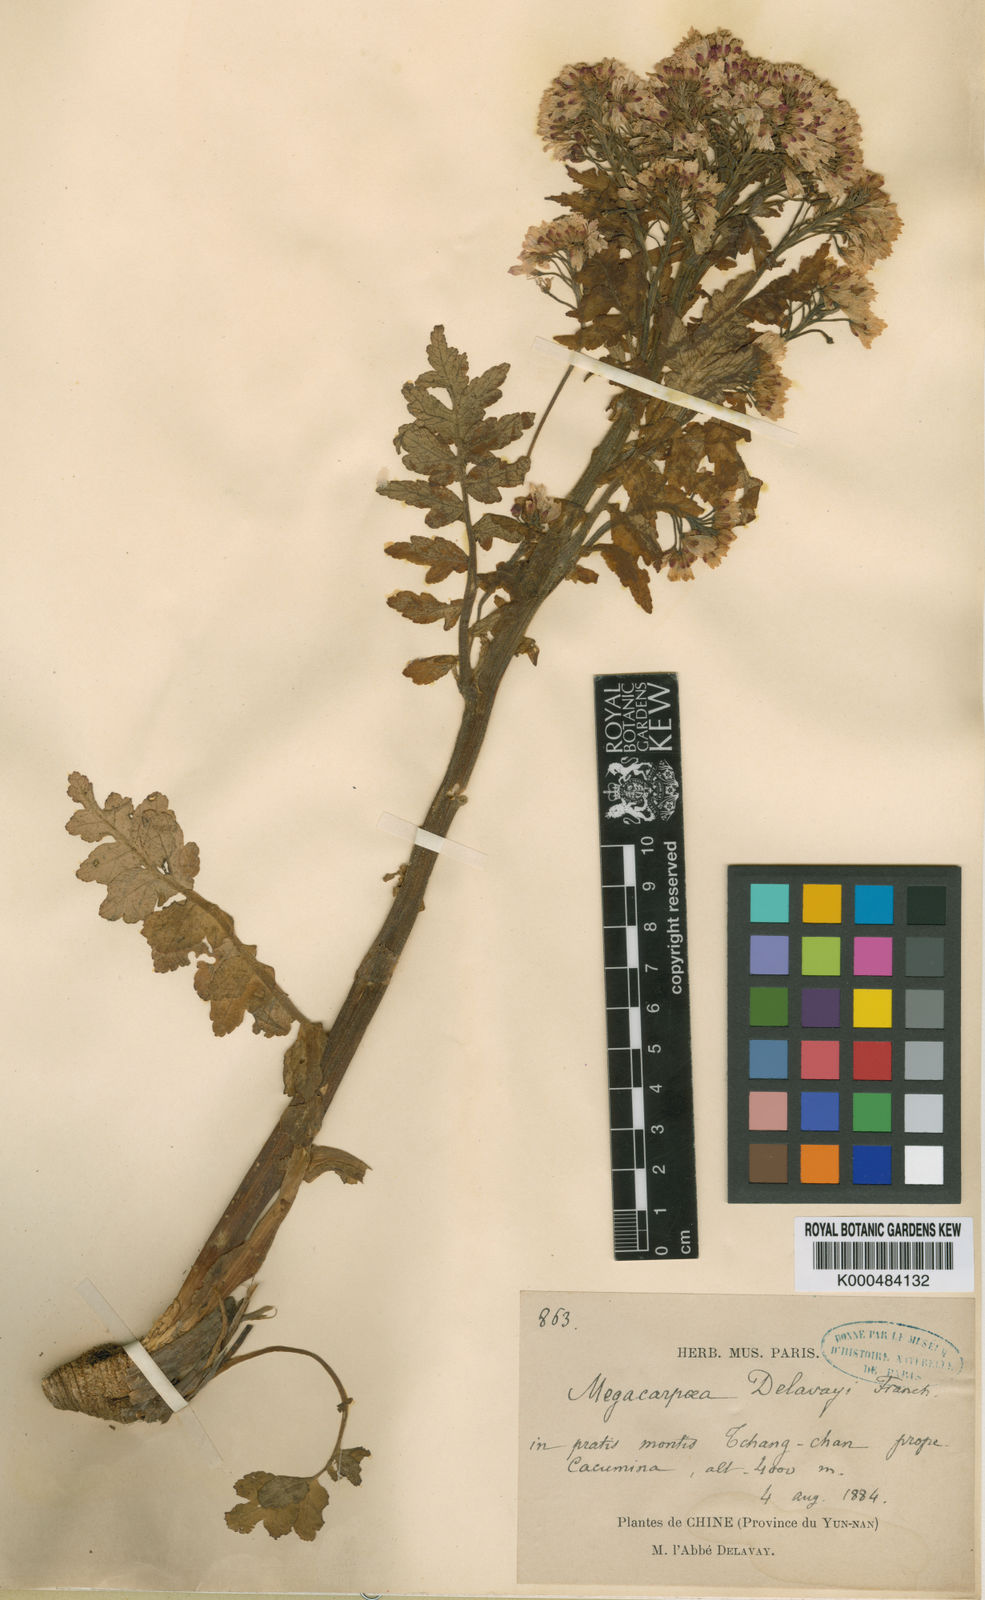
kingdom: Plantae
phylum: Tracheophyta
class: Magnoliopsida
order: Brassicales
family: Brassicaceae
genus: Megacarpaea
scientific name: Megacarpaea delavayi
